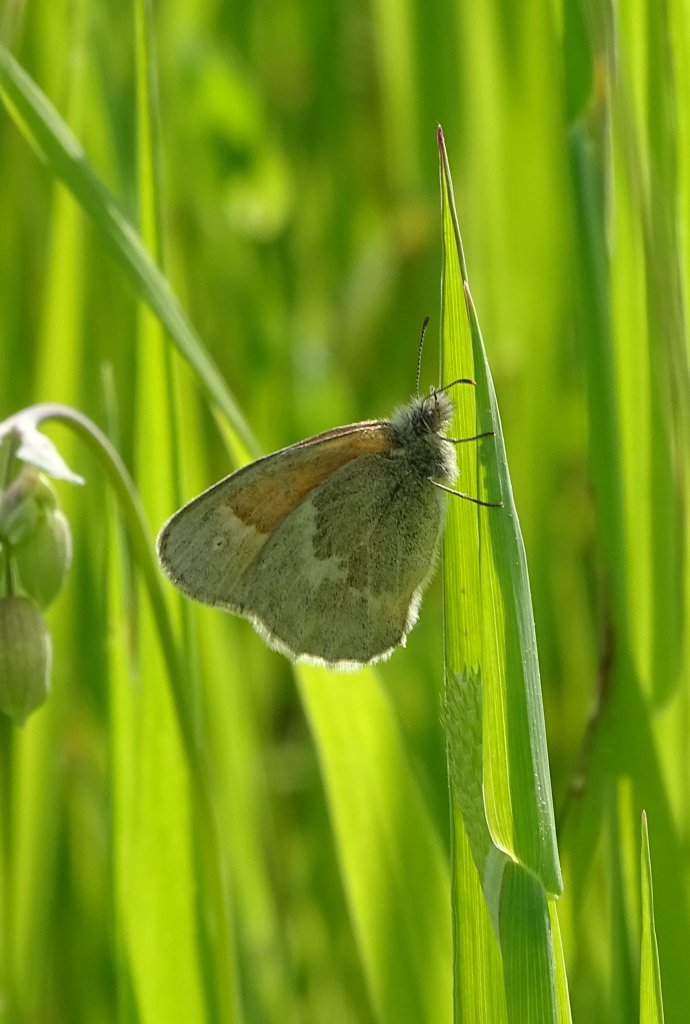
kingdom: Animalia
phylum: Arthropoda
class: Insecta
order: Lepidoptera
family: Nymphalidae
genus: Coenonympha
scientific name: Coenonympha tullia
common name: Large Heath
